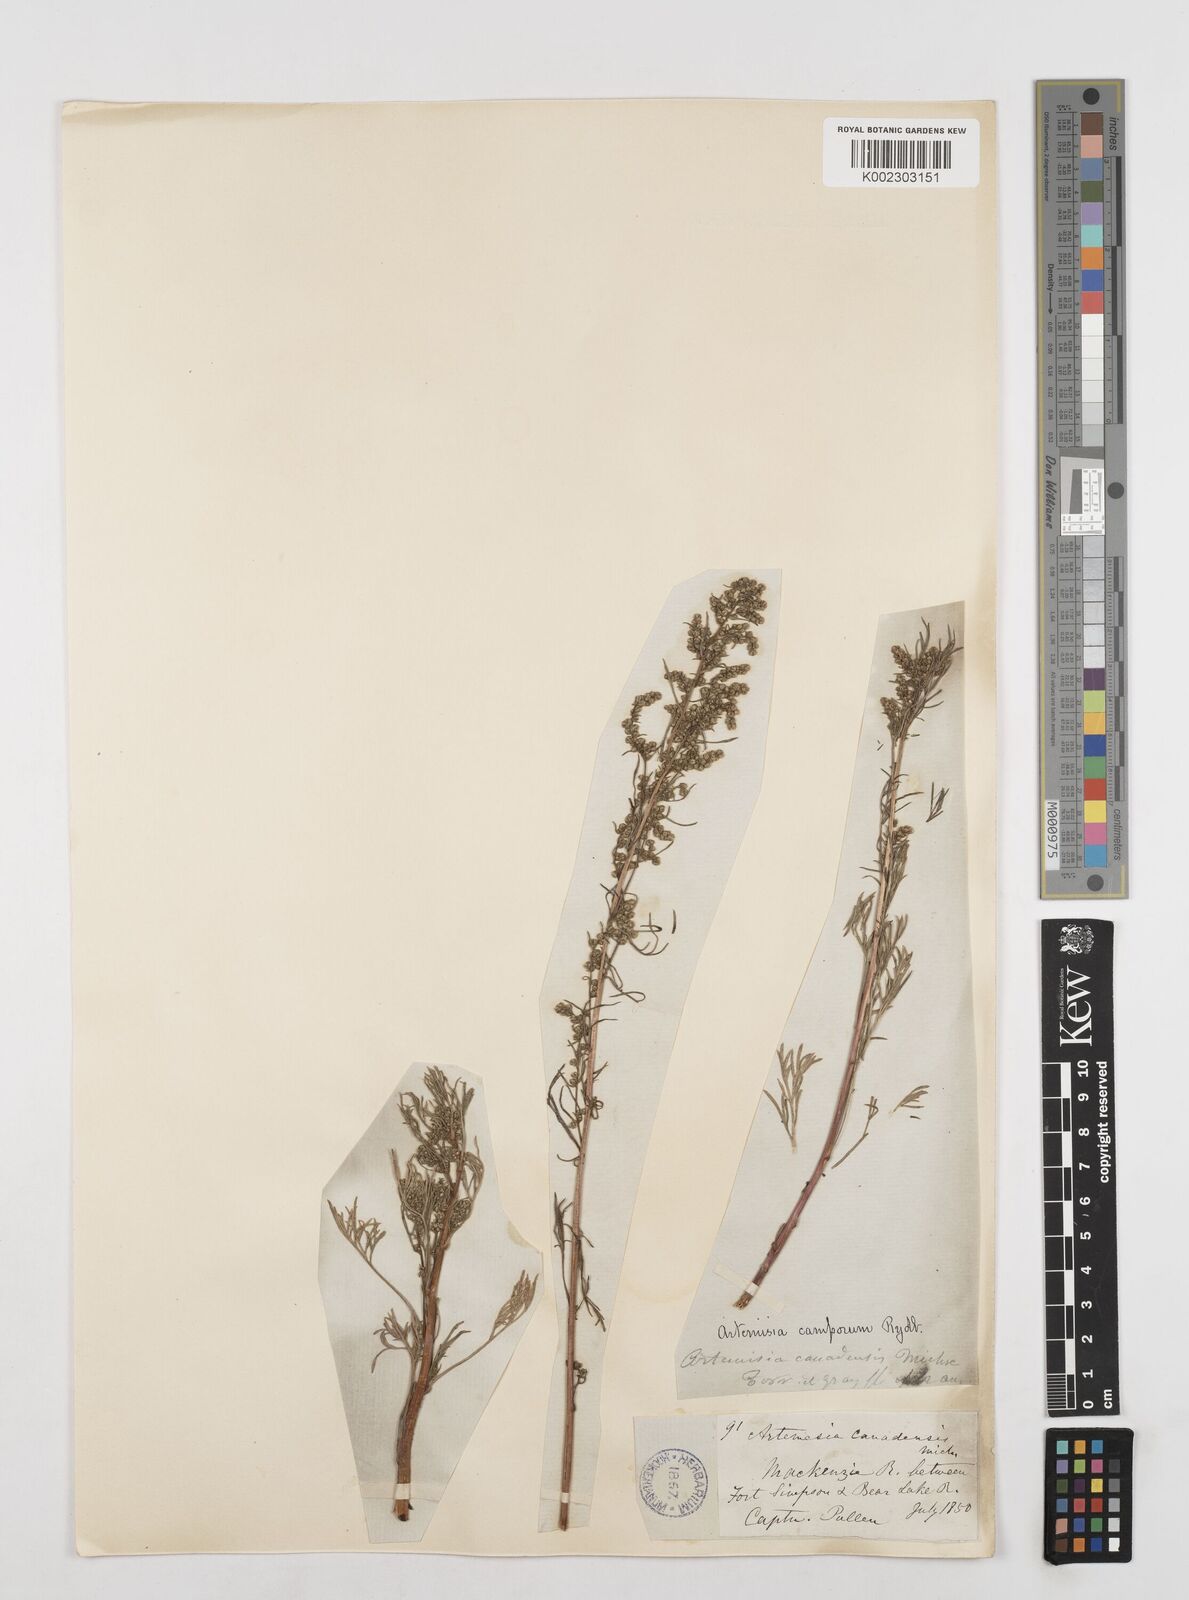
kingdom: Plantae
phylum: Tracheophyta
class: Magnoliopsida
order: Asterales
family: Asteraceae
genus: Artemisia
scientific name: Artemisia campestris
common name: Field wormwood
